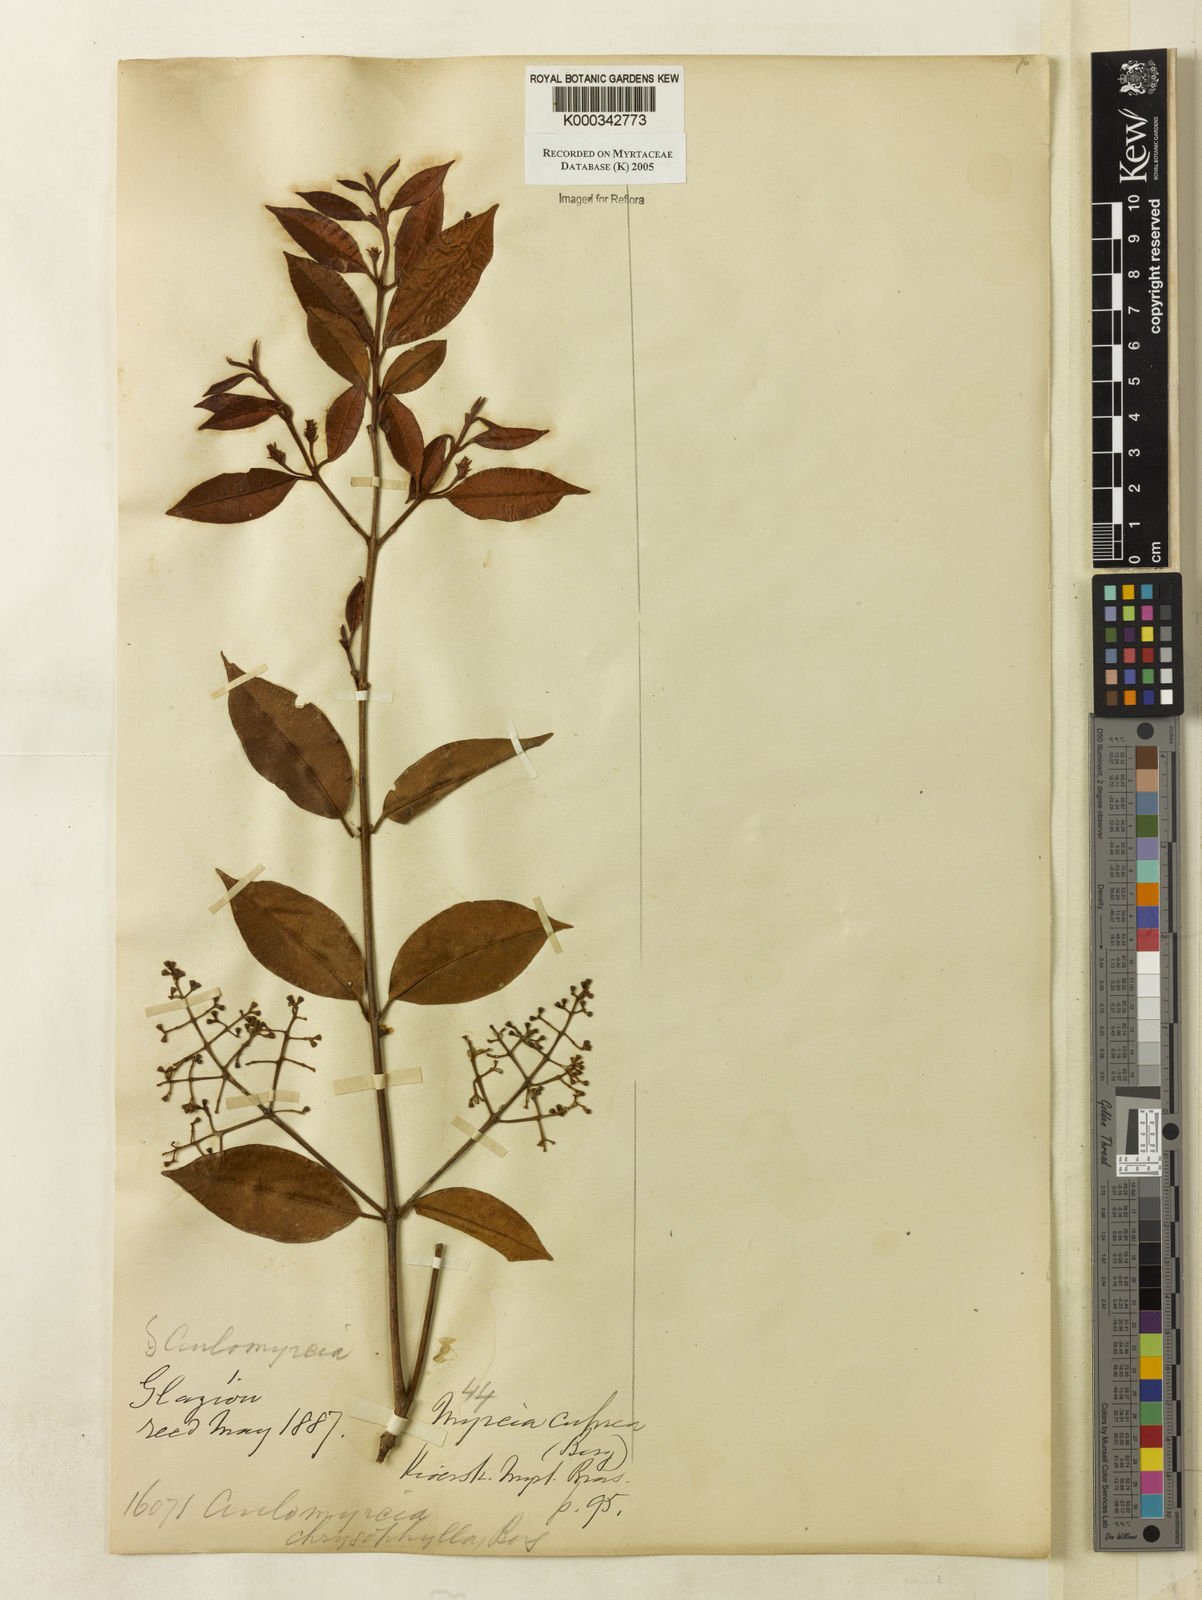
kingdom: Plantae
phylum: Tracheophyta
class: Magnoliopsida
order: Myrtales
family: Myrtaceae
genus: Myrcia
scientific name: Myrcia cuprea
